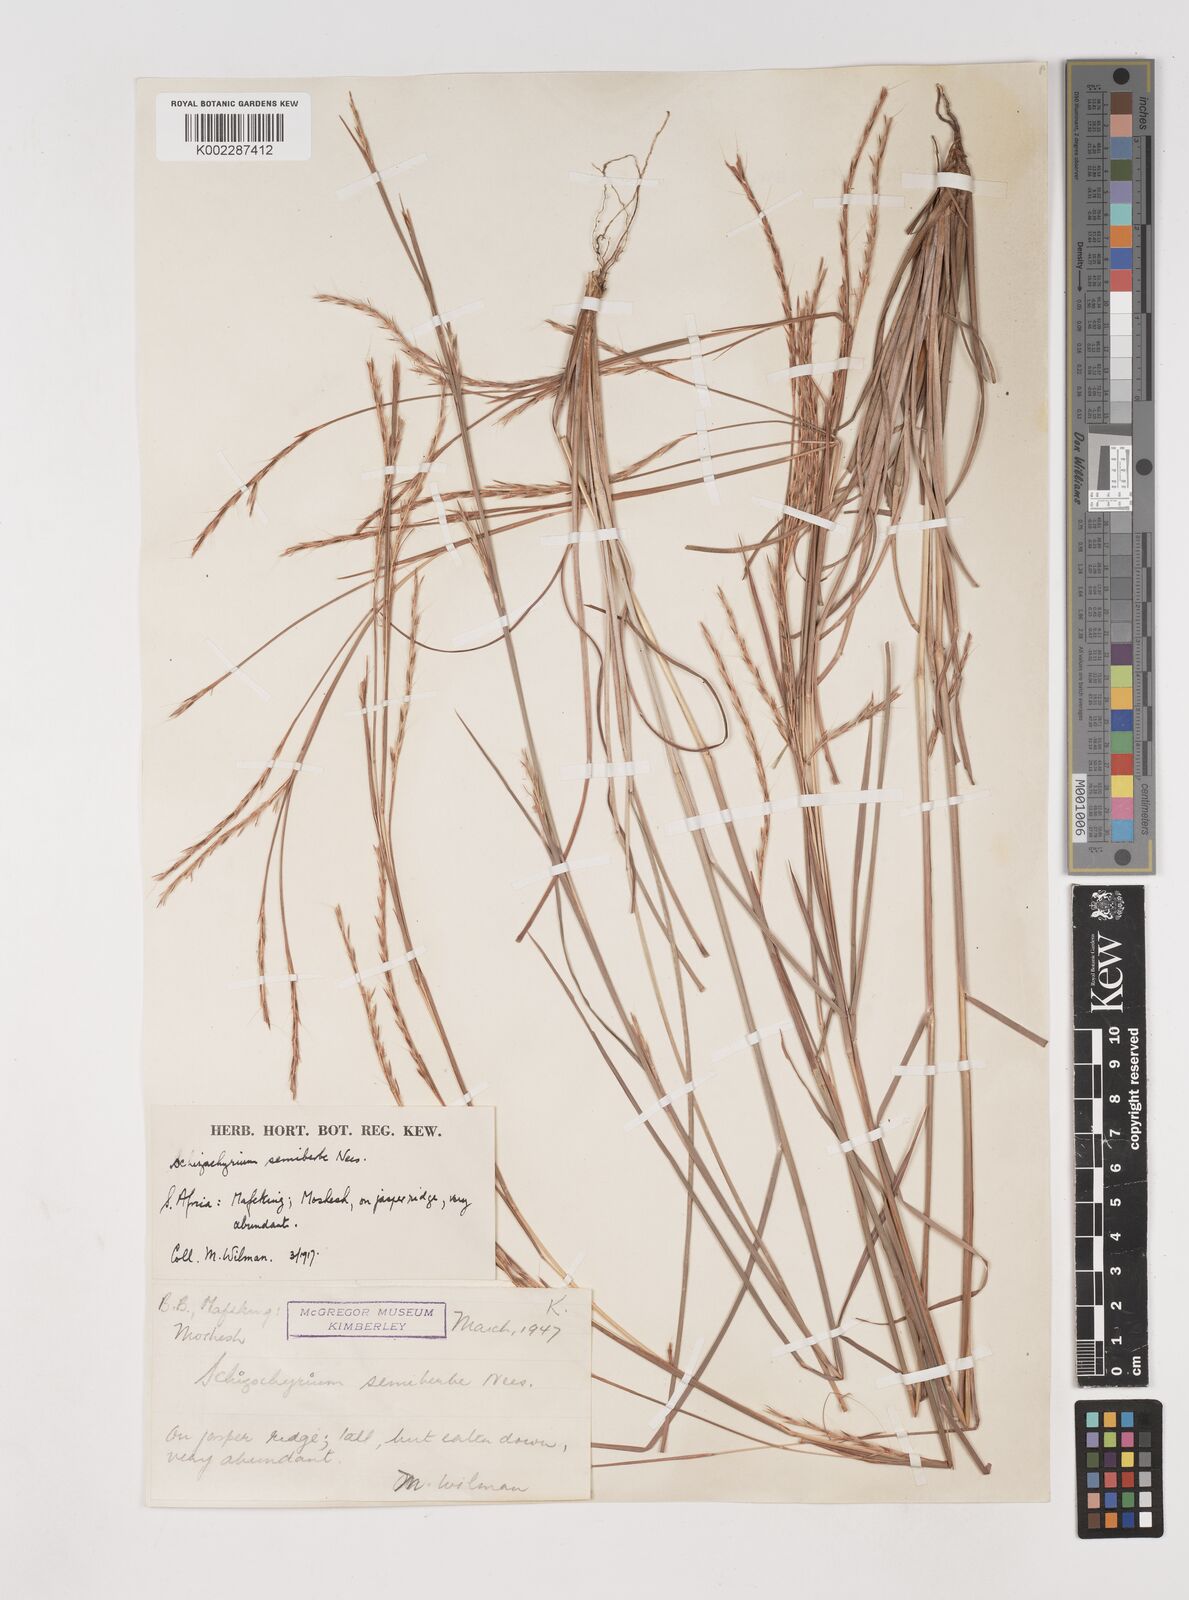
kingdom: Plantae
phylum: Tracheophyta
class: Liliopsida
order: Poales
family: Poaceae
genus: Schizachyrium
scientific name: Schizachyrium sanguineum
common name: Crimson bluestem
